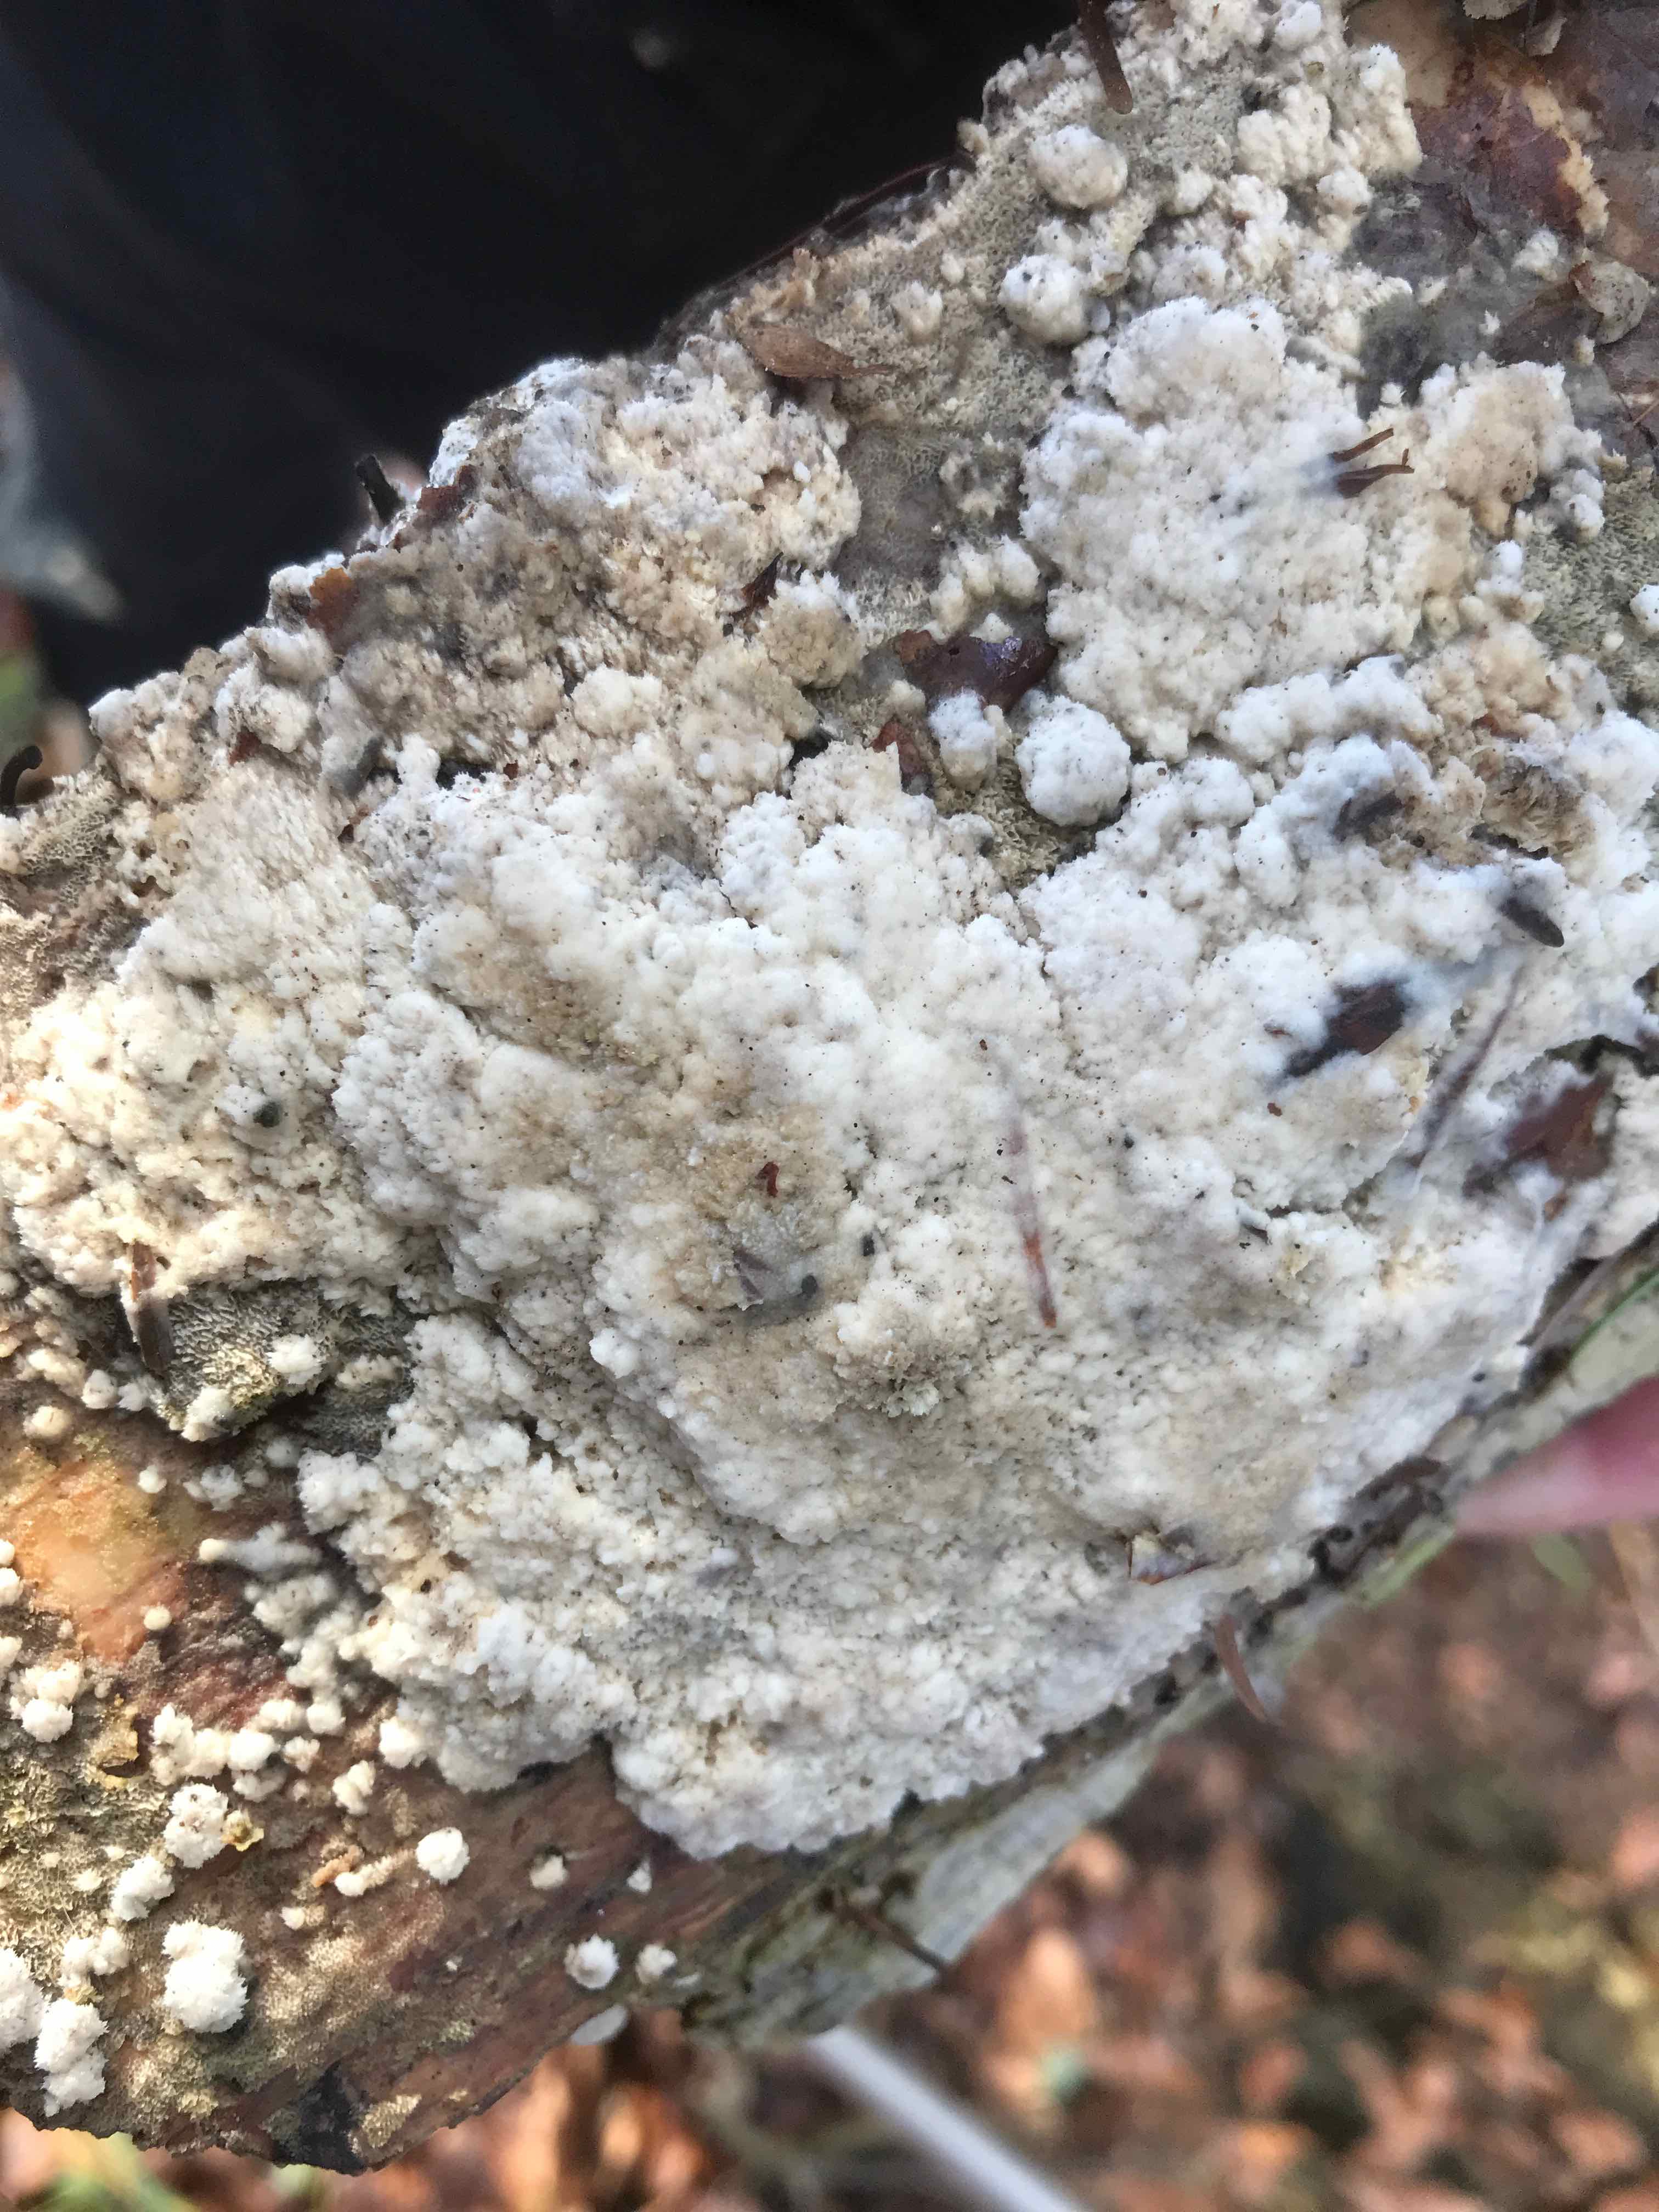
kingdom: Fungi
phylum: Basidiomycota
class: Agaricomycetes
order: Hymenochaetales
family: Schizoporaceae
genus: Xylodon
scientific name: Xylodon
